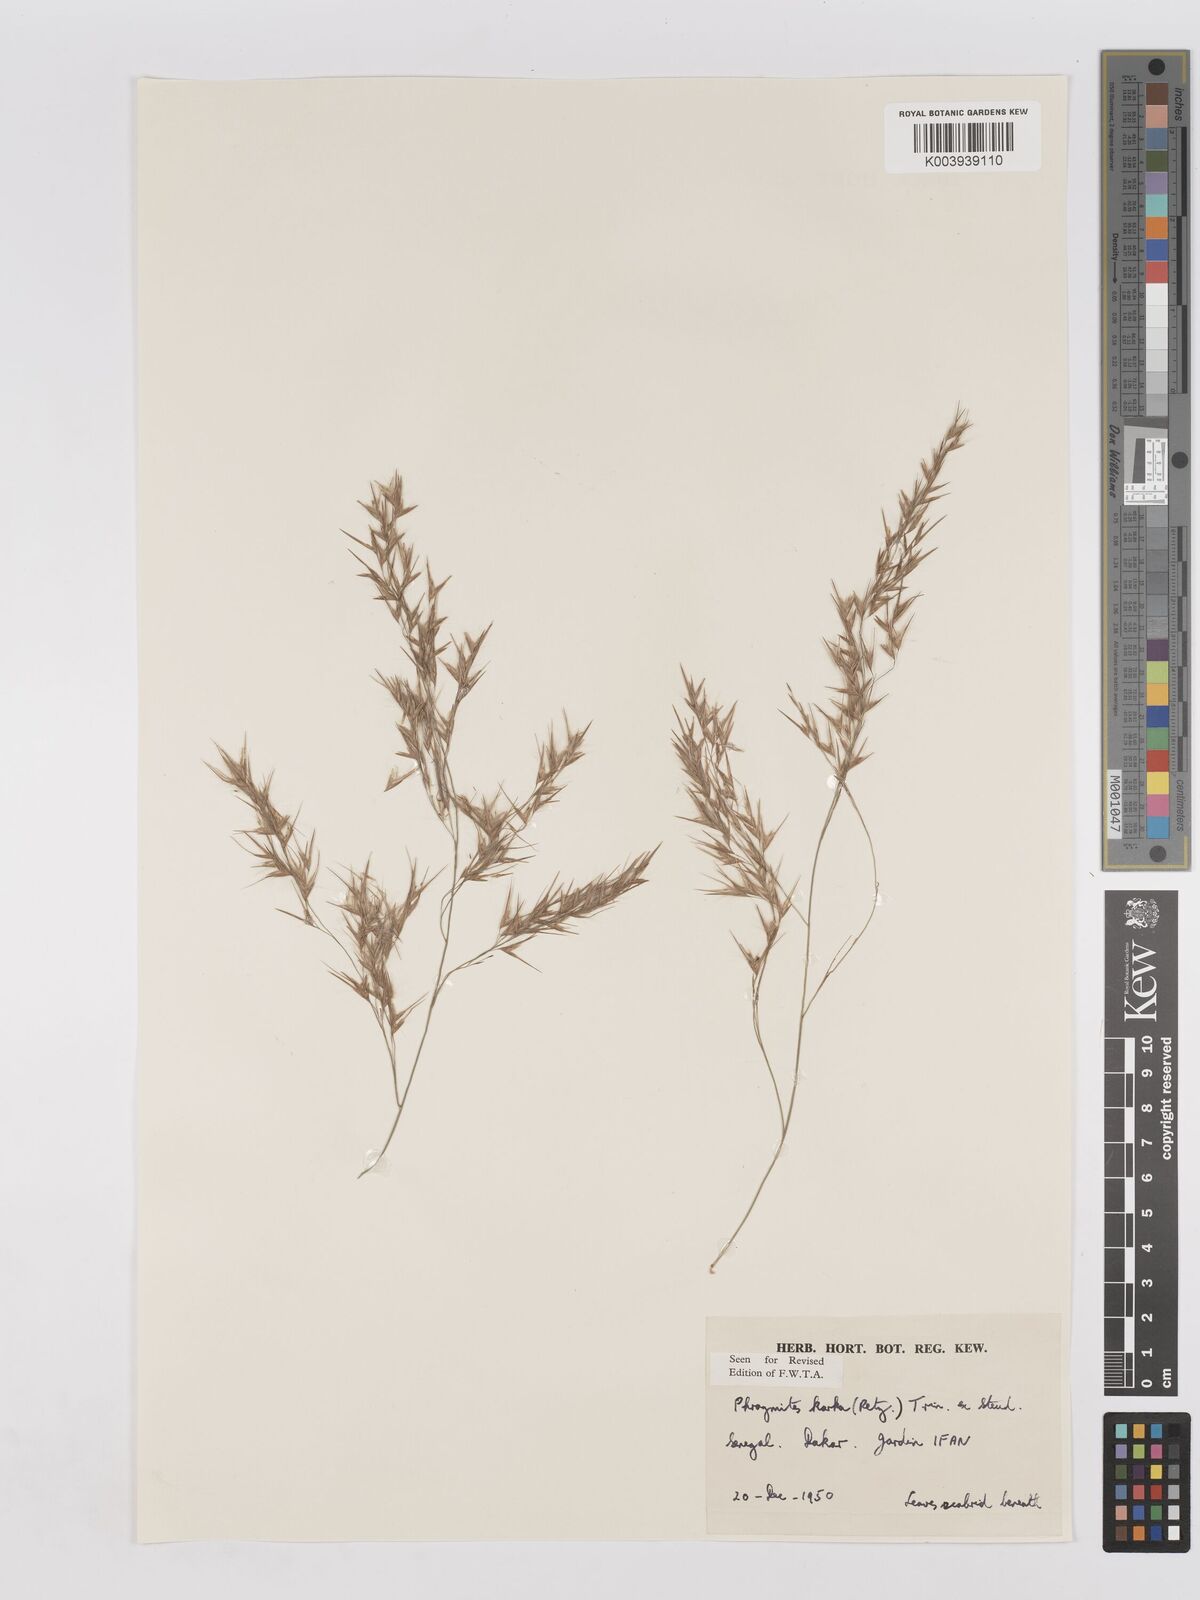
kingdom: Plantae
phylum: Tracheophyta
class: Liliopsida
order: Poales
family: Poaceae
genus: Phragmites
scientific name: Phragmites karka
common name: Tropical reed
